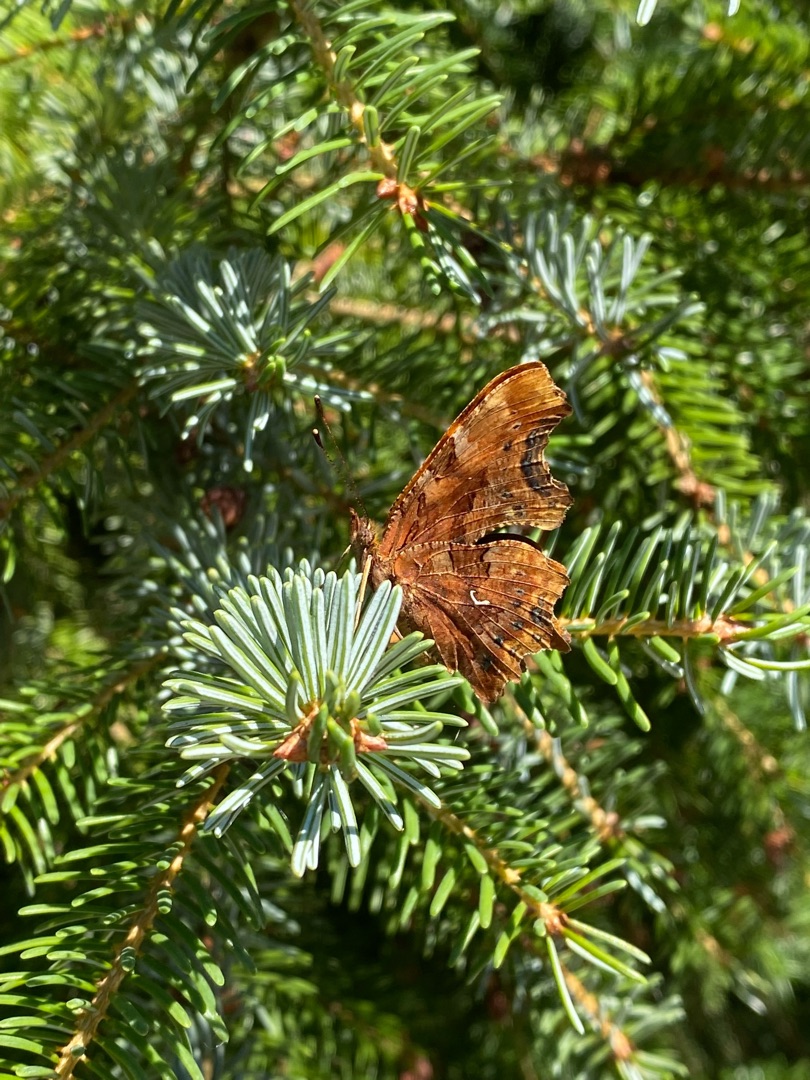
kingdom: Animalia
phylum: Arthropoda
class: Insecta
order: Lepidoptera
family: Nymphalidae
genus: Polygonia
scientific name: Polygonia c-album
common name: Det hvide C
